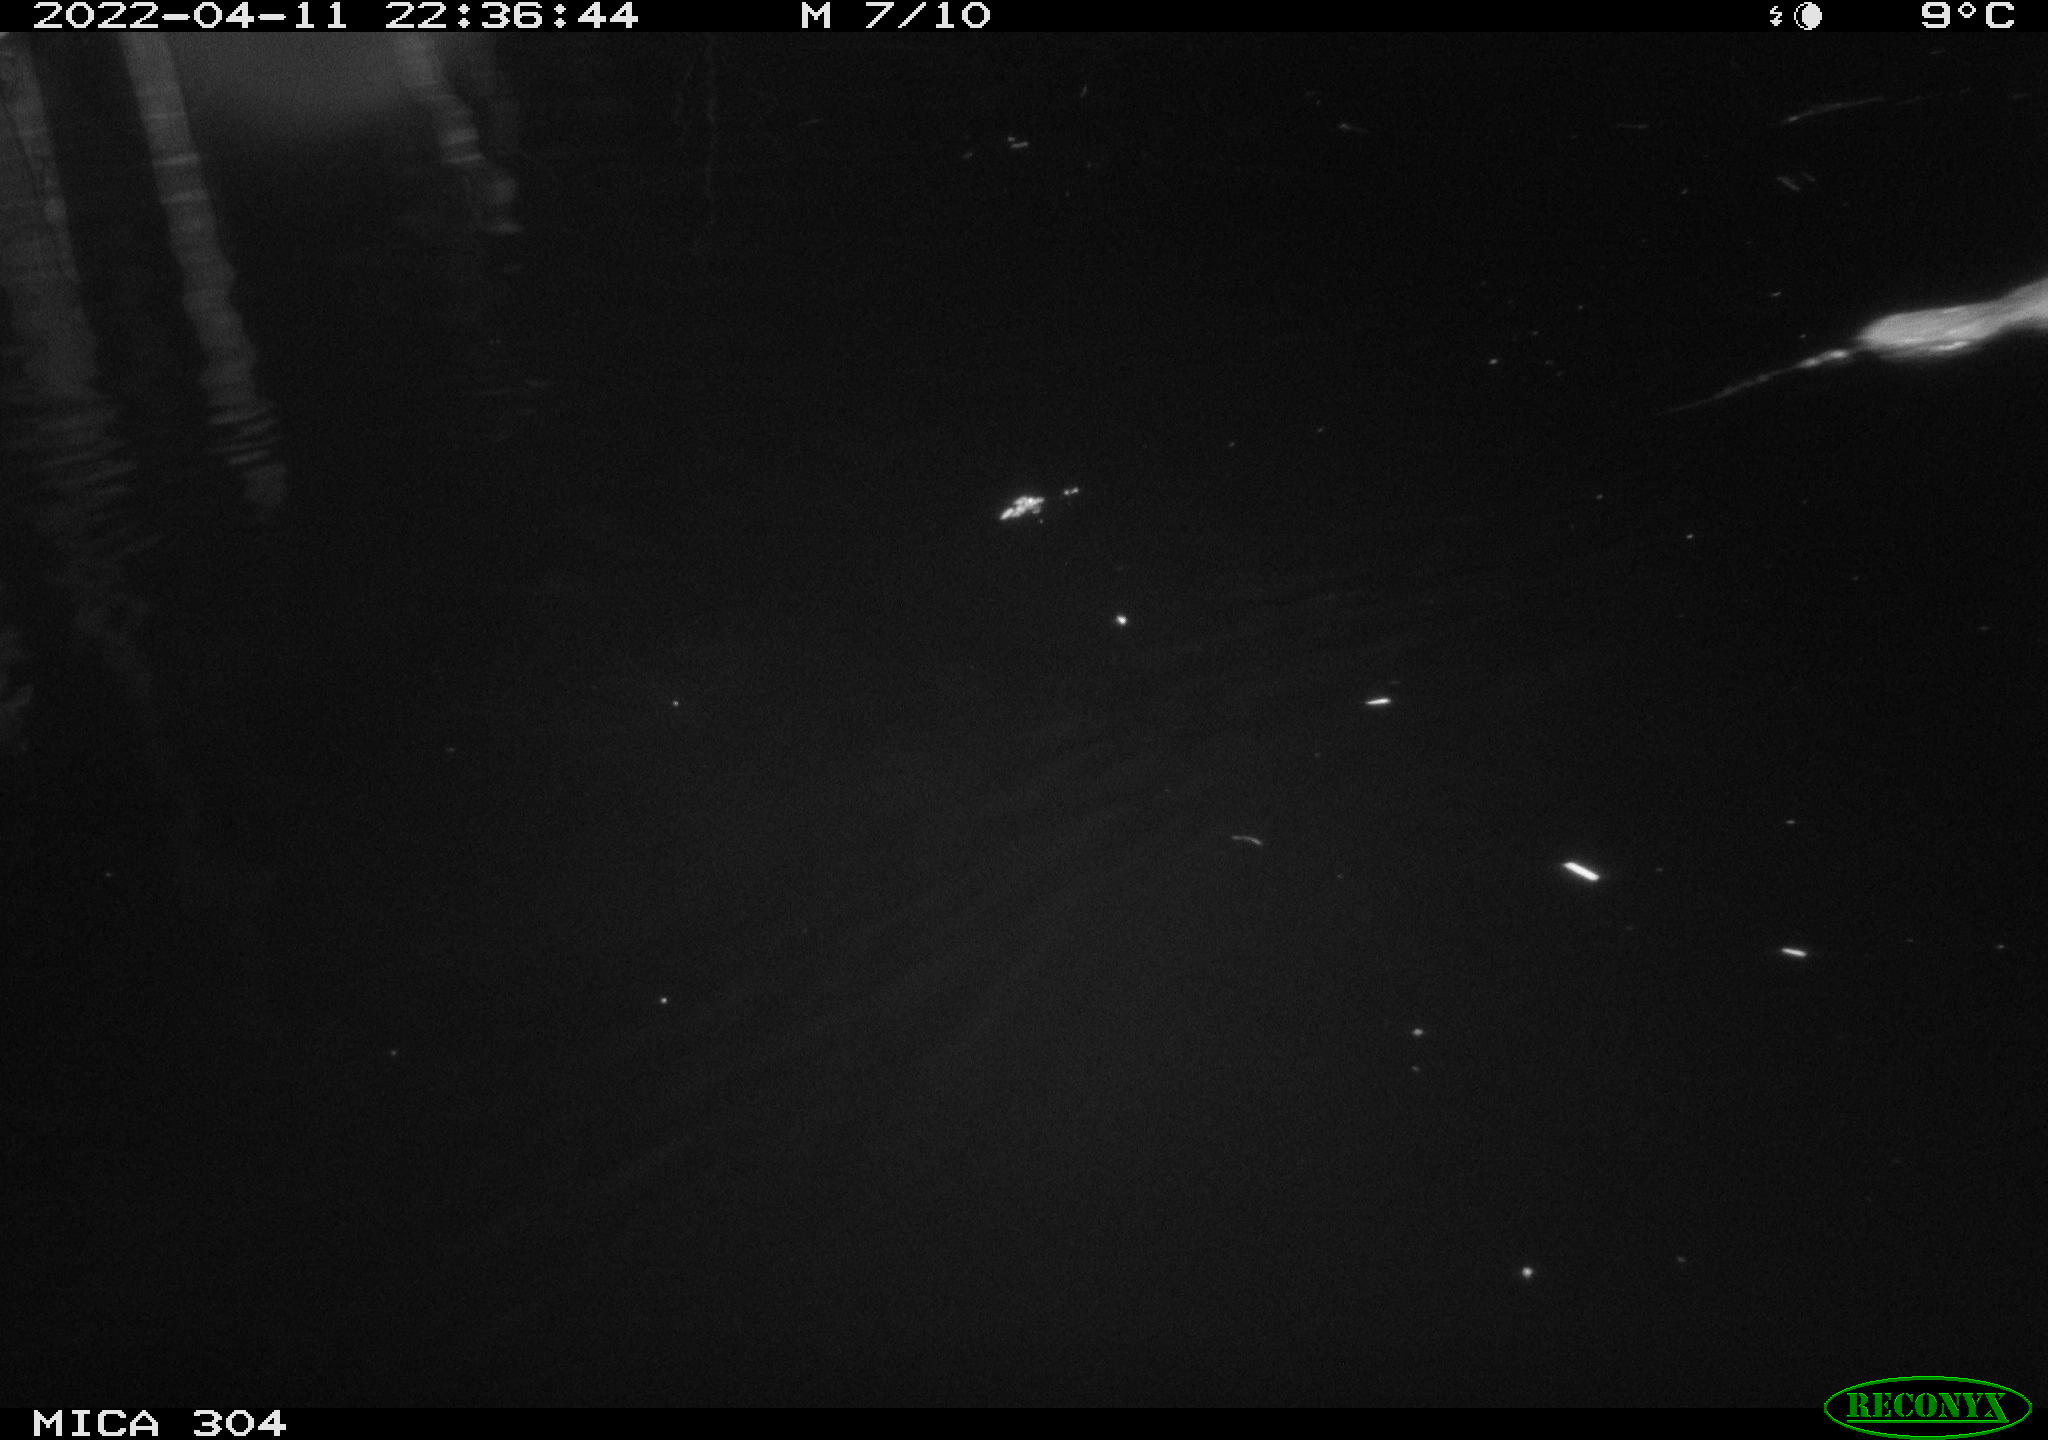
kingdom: Animalia
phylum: Chordata
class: Mammalia
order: Rodentia
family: Muridae
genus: Rattus
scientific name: Rattus norvegicus
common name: Brown rat
